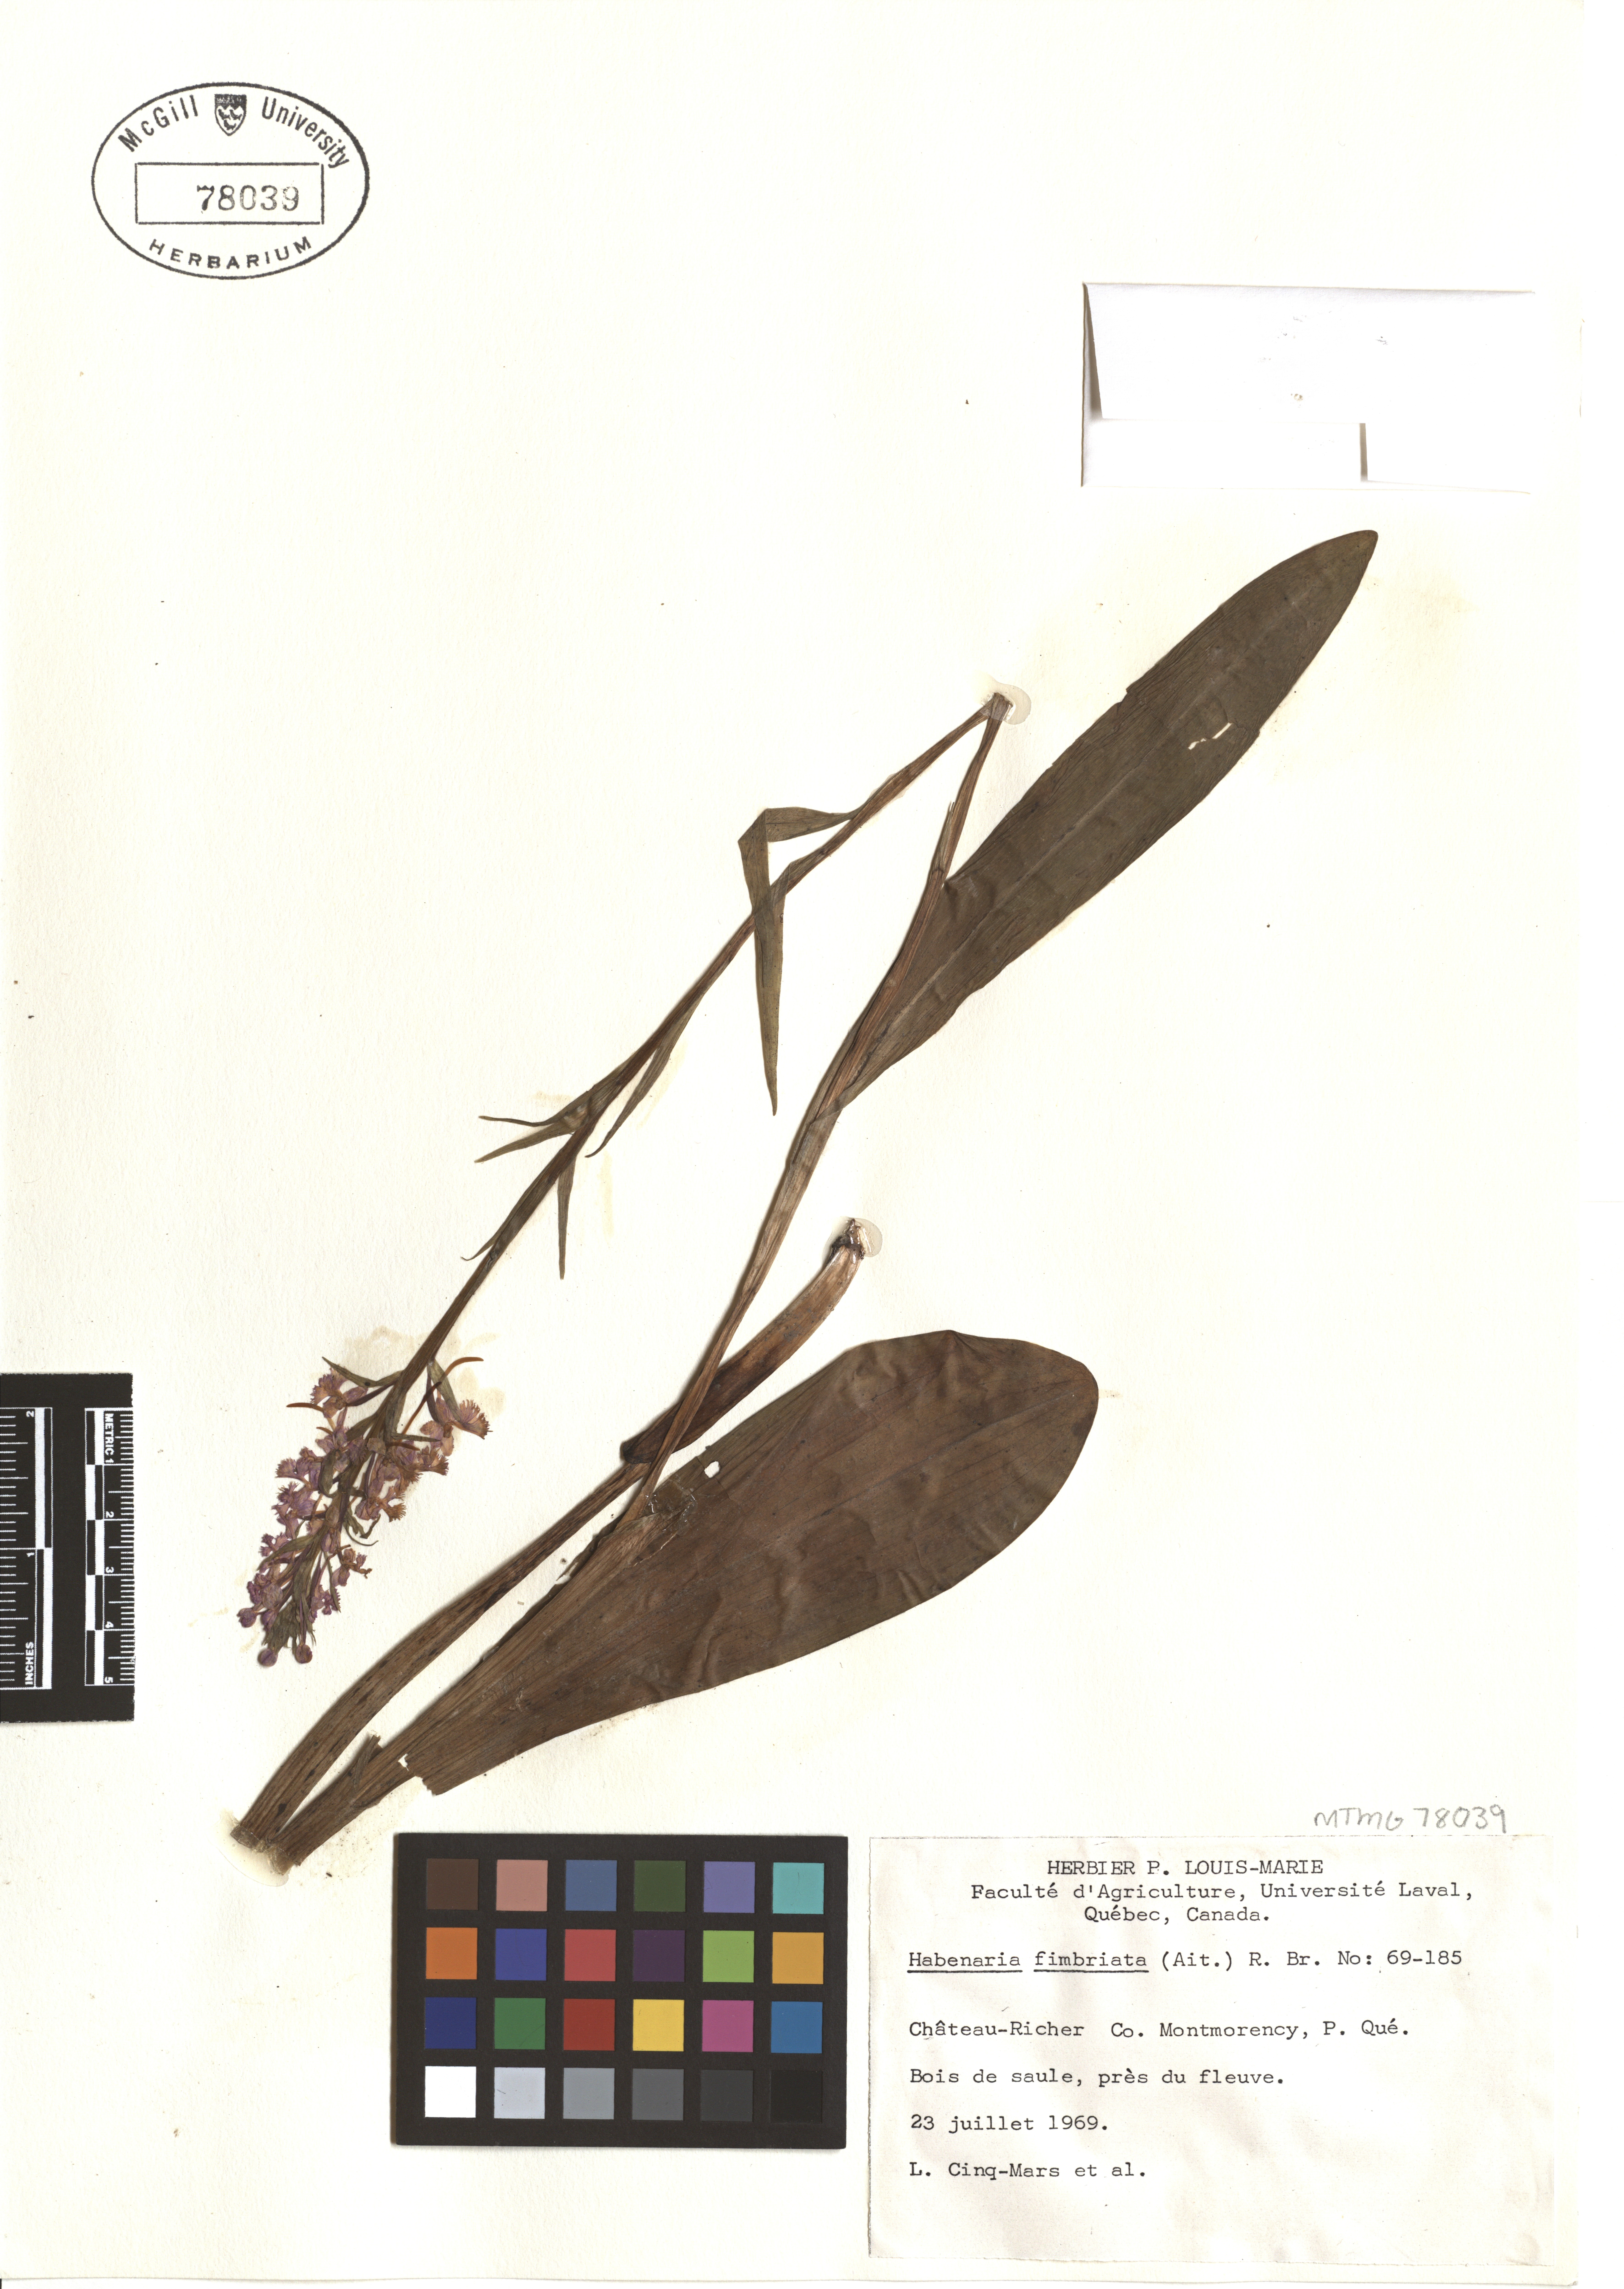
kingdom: Plantae
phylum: Tracheophyta
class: Liliopsida
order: Asparagales
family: Orchidaceae
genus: Platanthera
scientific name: Platanthera grandiflora
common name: Greater purple fringed orchid
